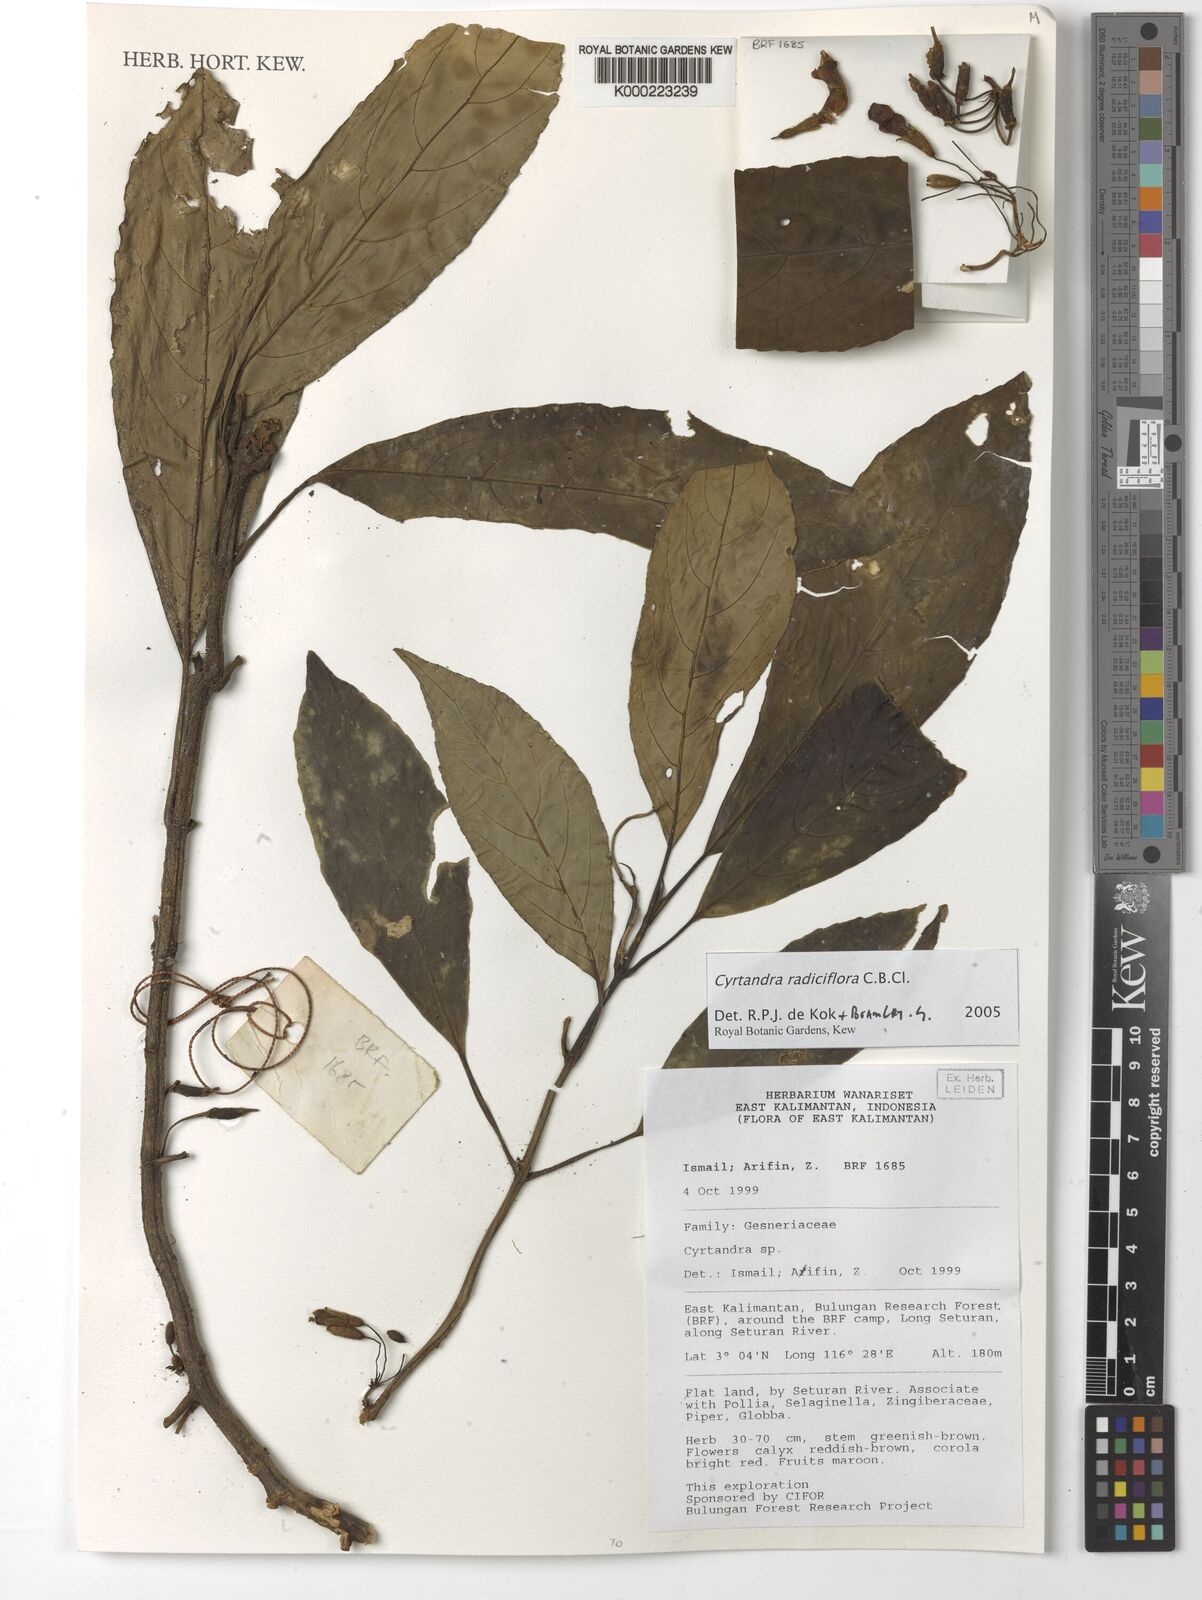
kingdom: Plantae
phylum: Tracheophyta
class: Magnoliopsida
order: Lamiales
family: Gesneriaceae
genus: Cyrtandra
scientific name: Cyrtandra
